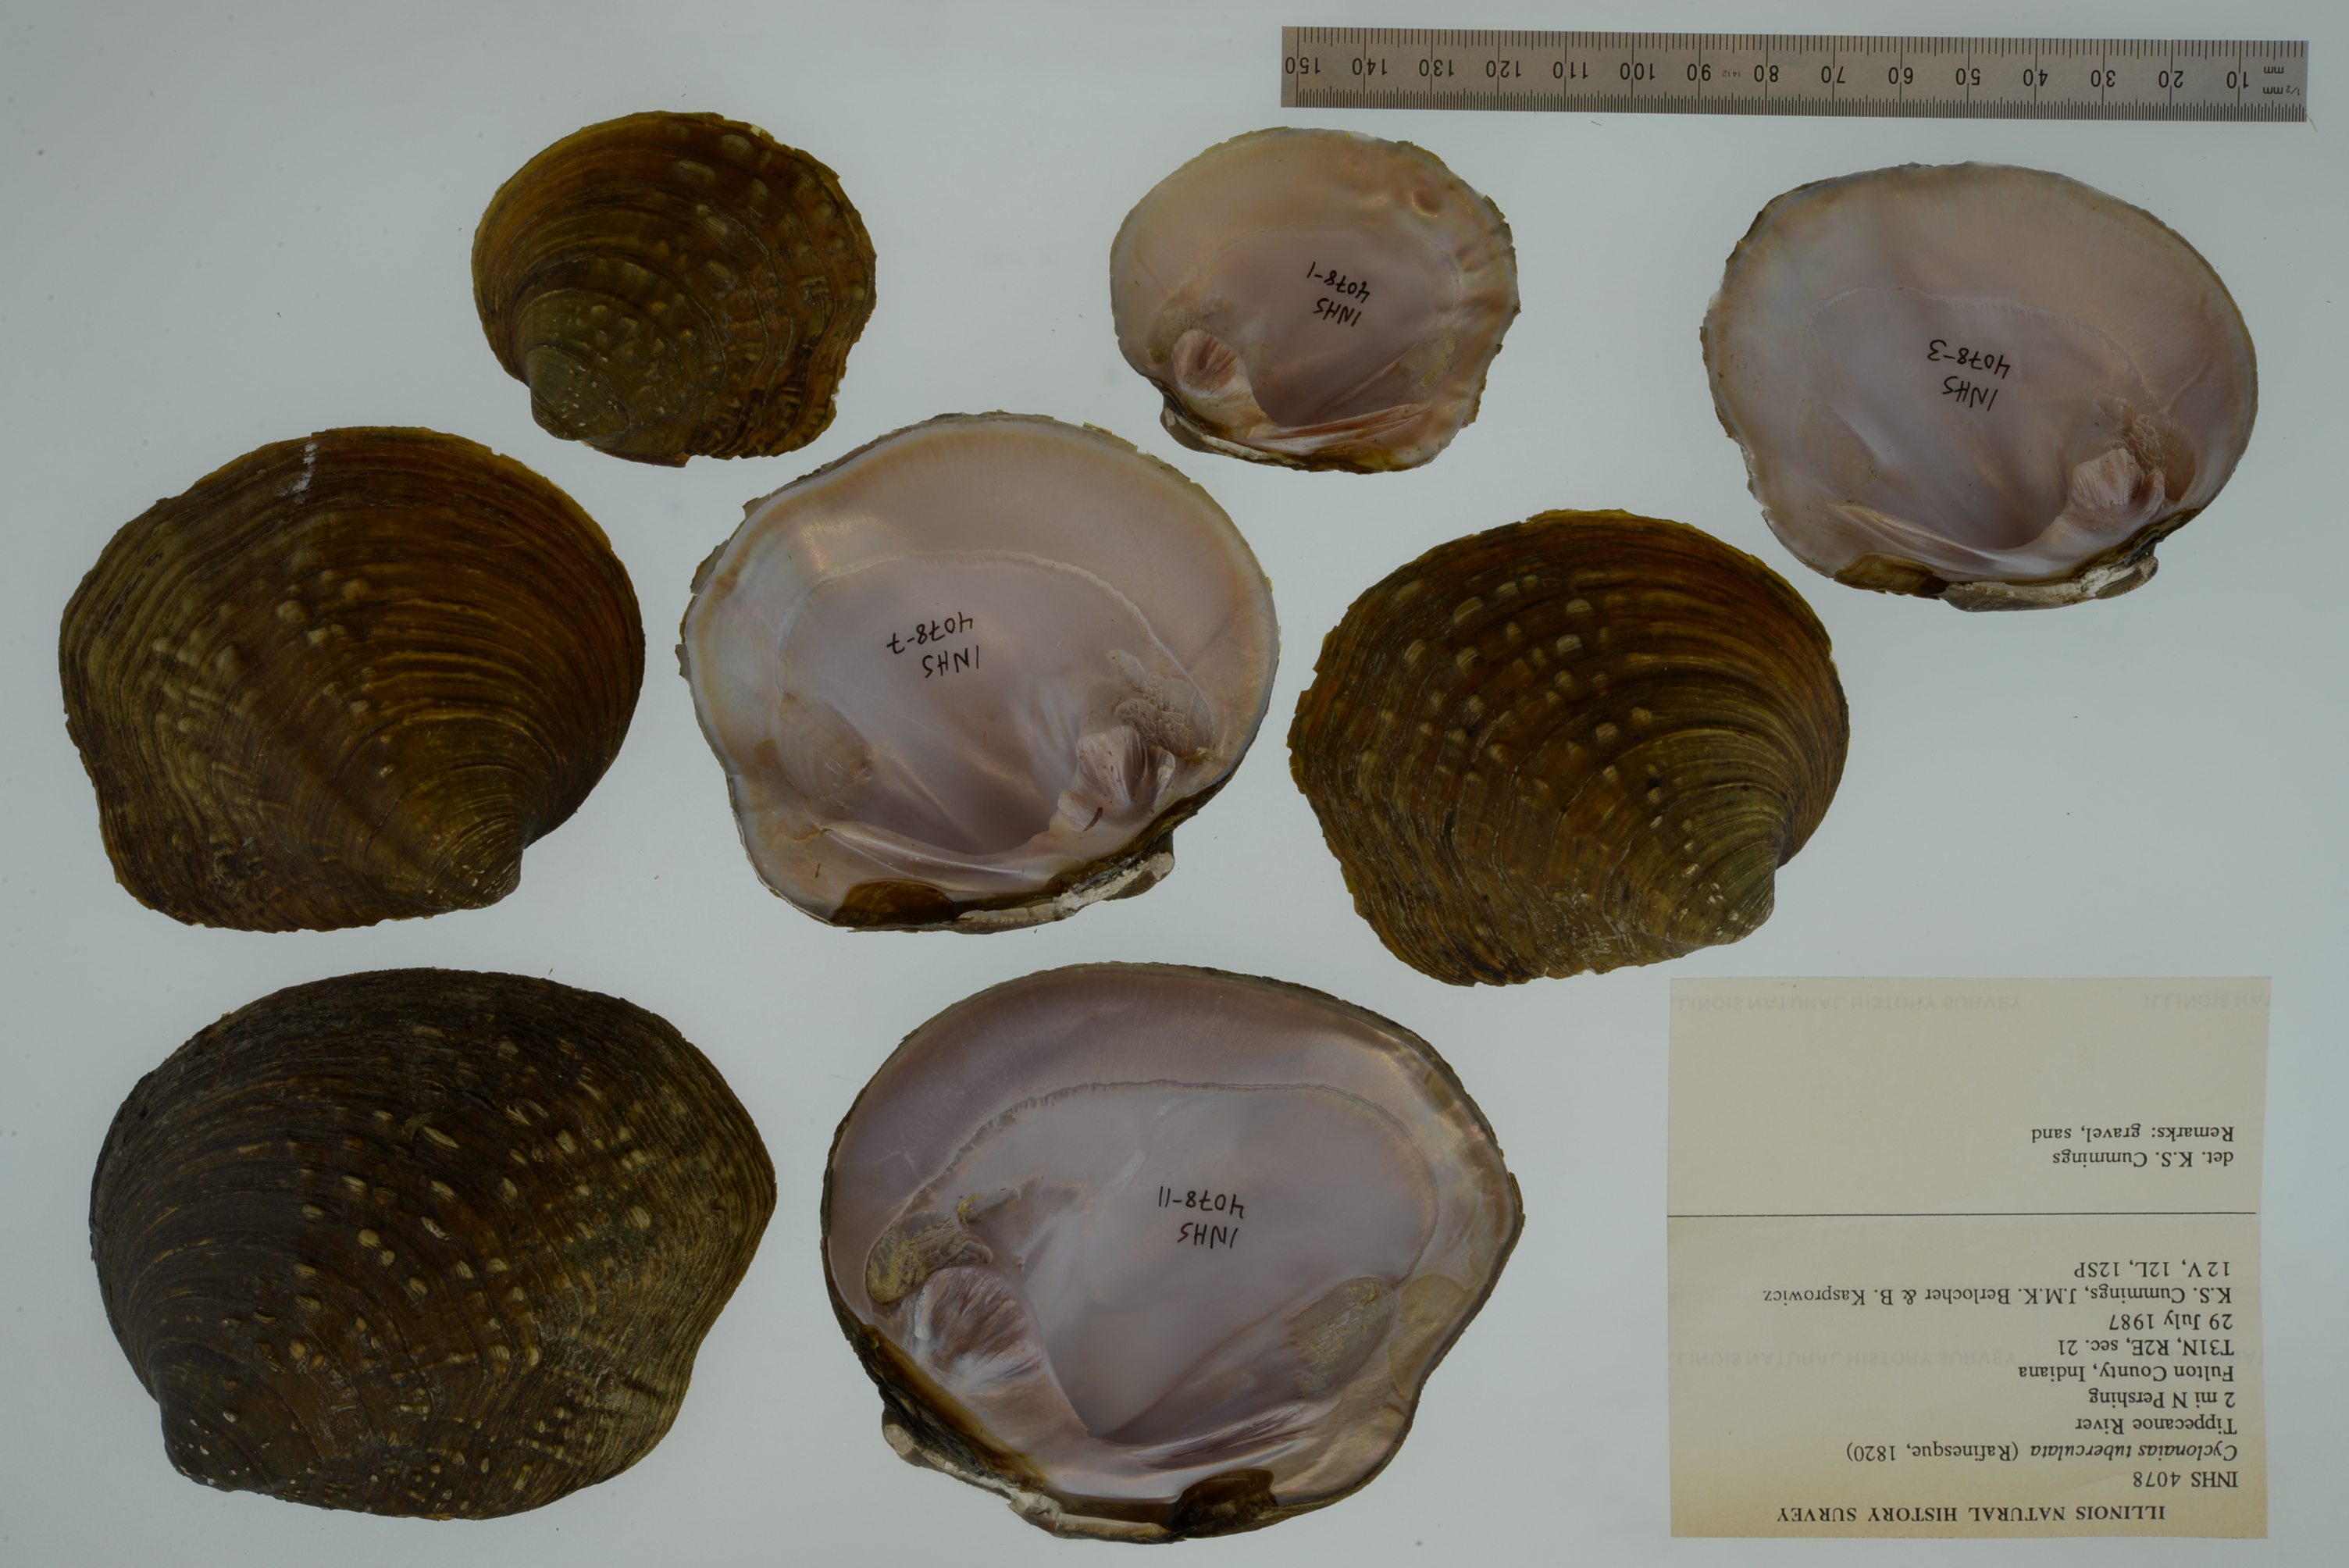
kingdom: Animalia
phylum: Mollusca
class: Bivalvia
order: Unionida
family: Unionidae
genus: Cyclonaias
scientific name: Cyclonaias tuberculata
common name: Purple wartyback
